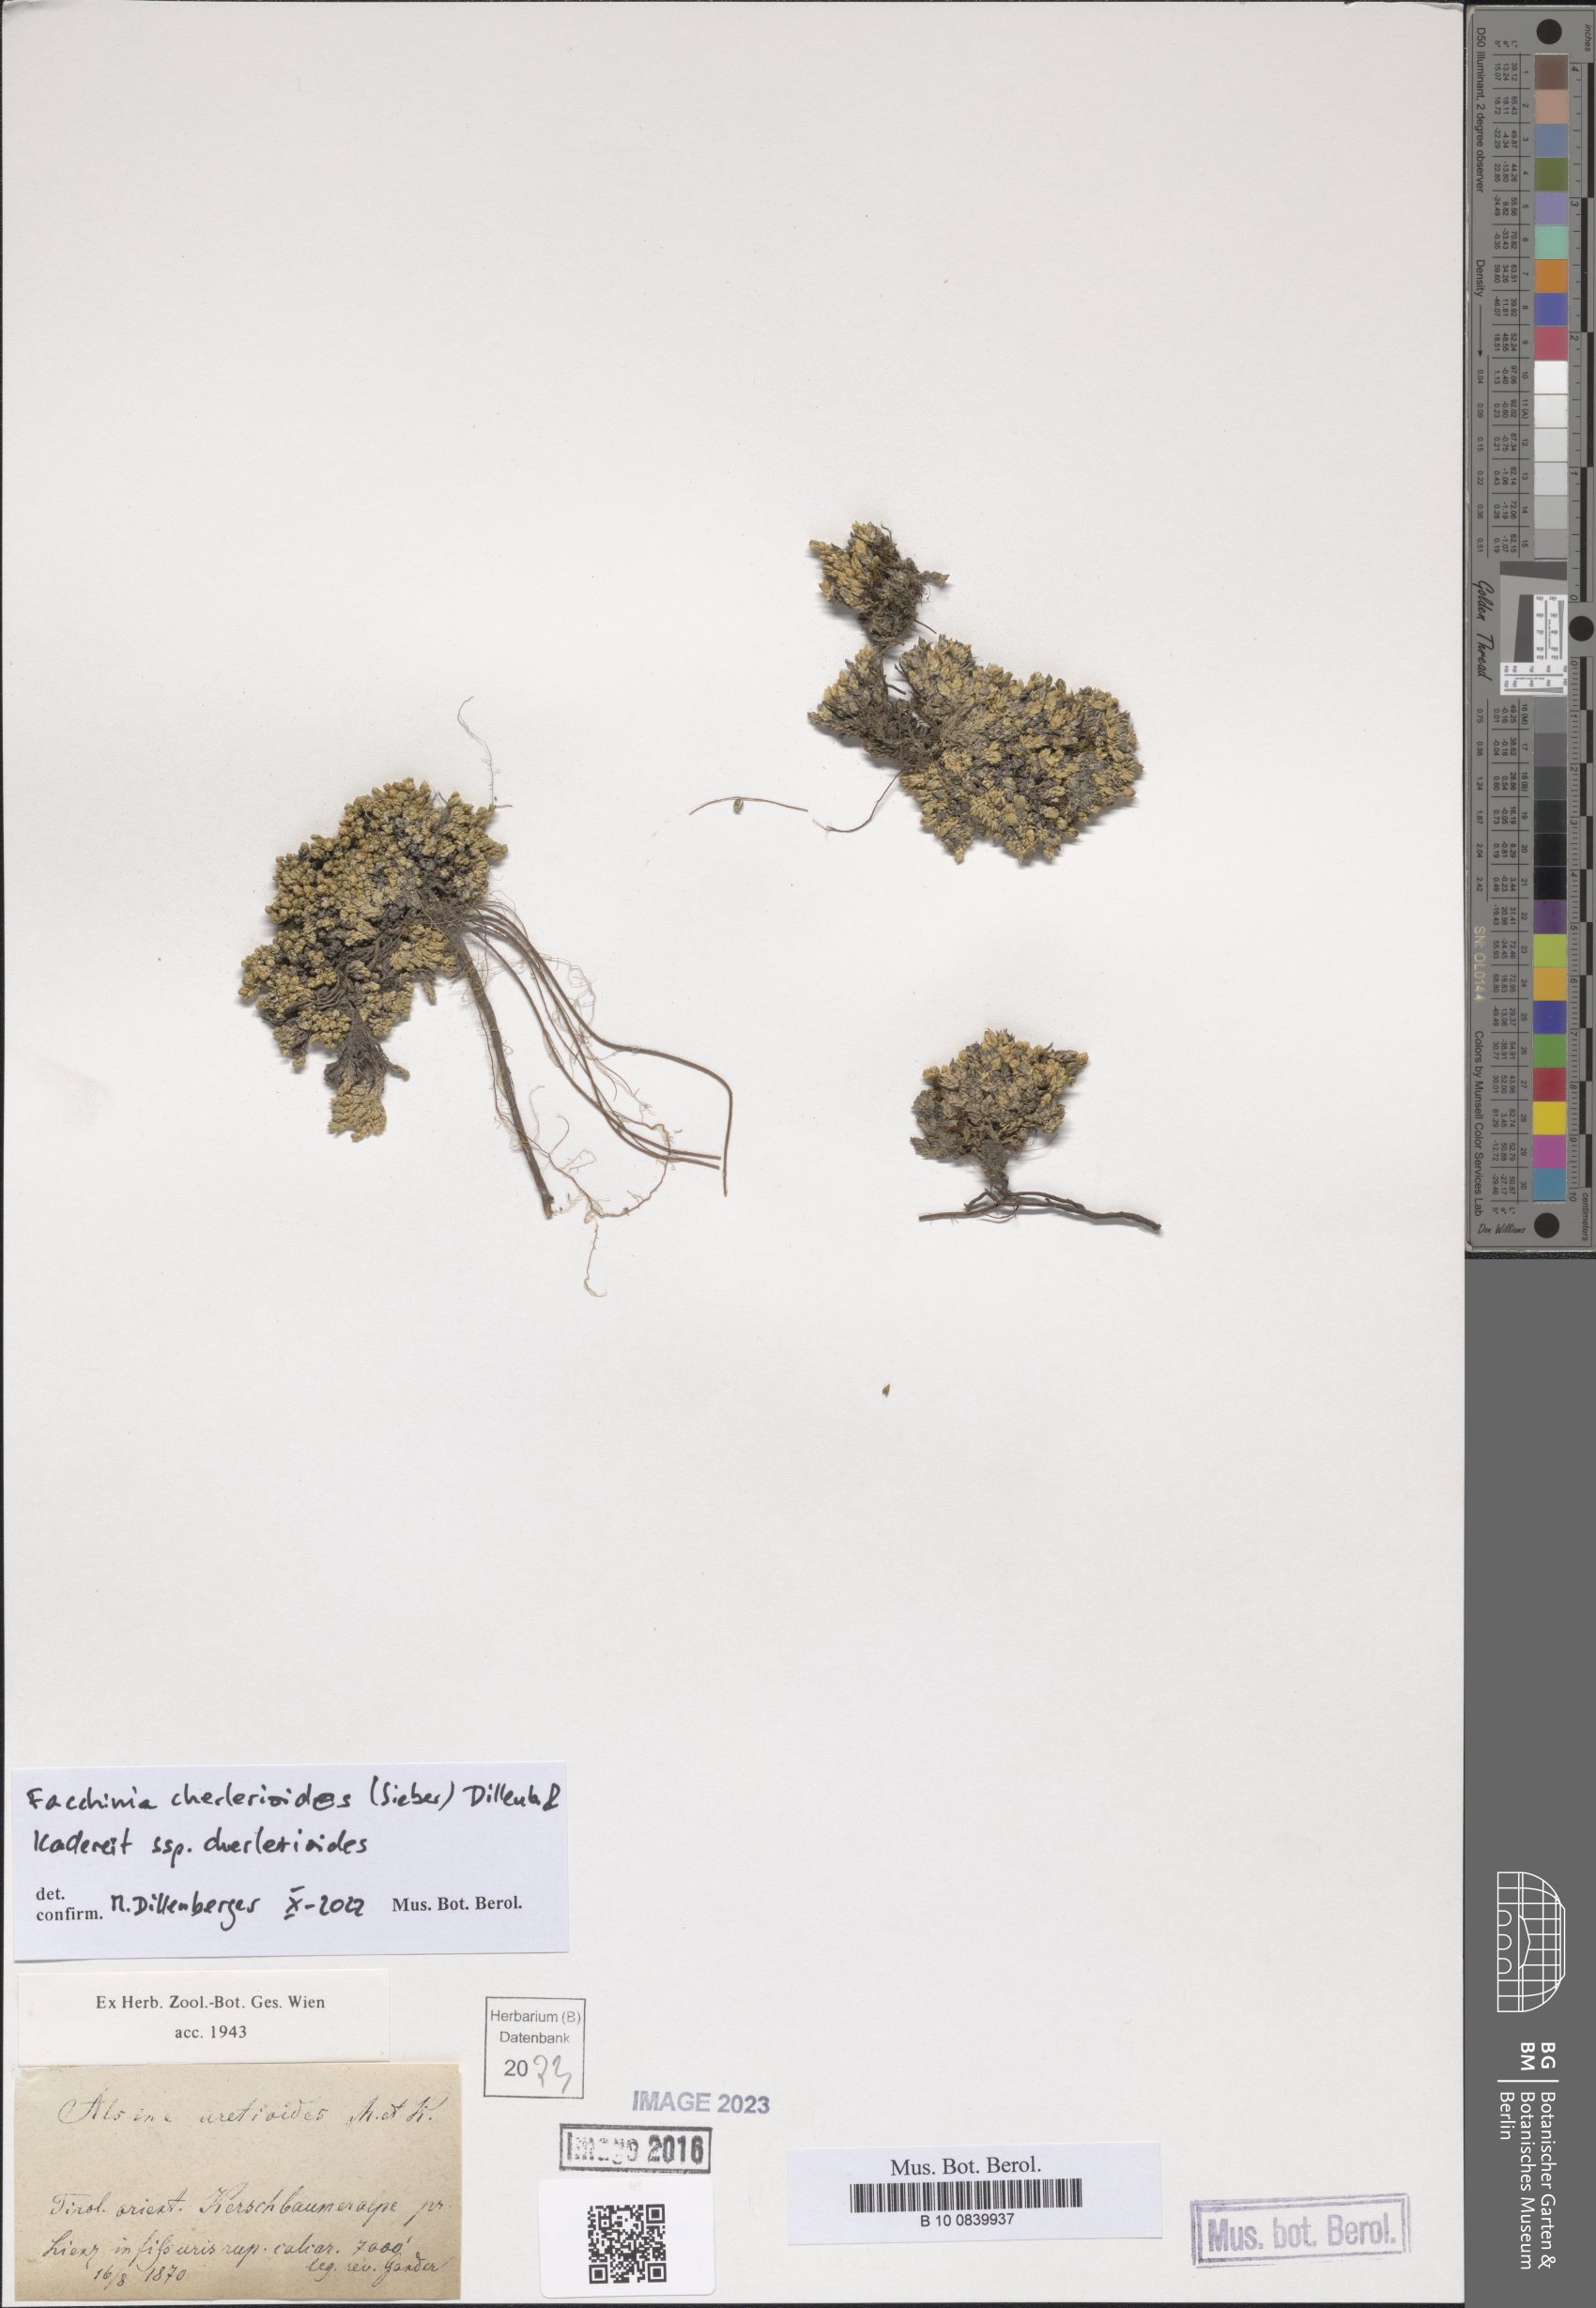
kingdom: Plantae
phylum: Tracheophyta
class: Magnoliopsida
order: Caryophyllales
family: Caryophyllaceae
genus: Facchinia
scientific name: Facchinia cherlerioides
